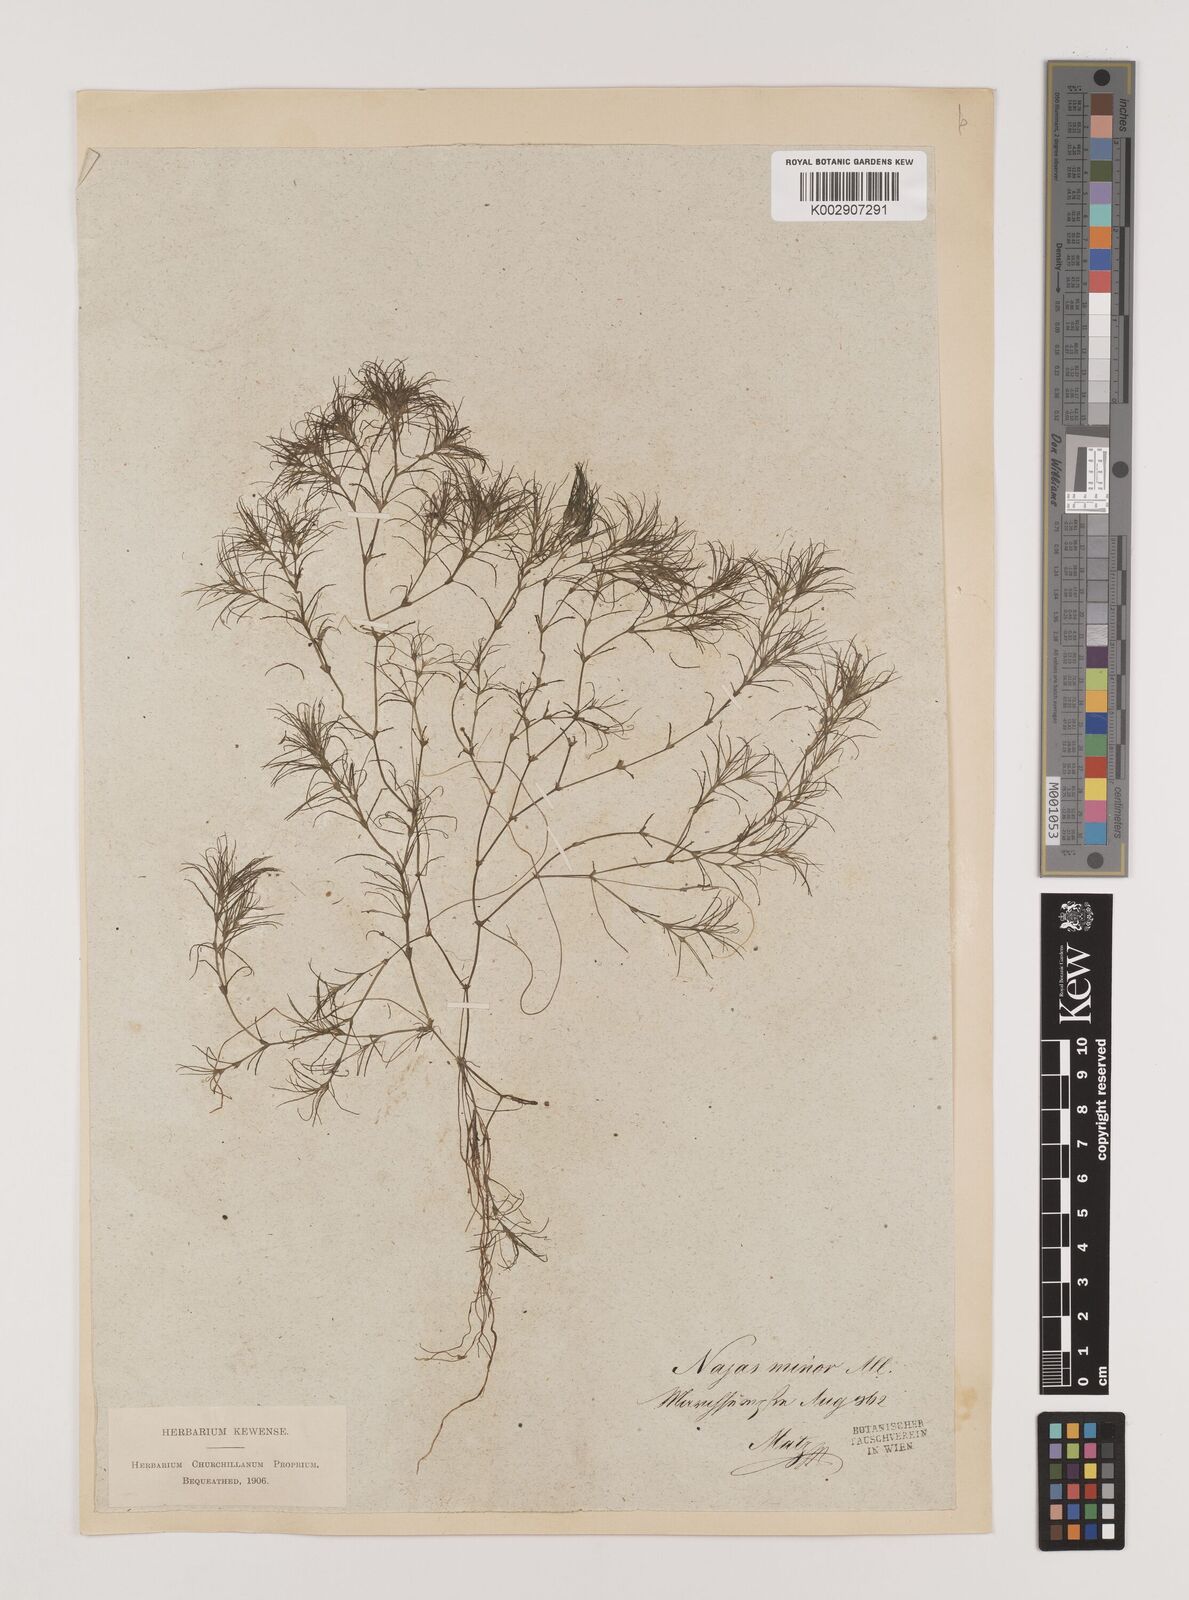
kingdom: Plantae
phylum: Tracheophyta
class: Liliopsida
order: Alismatales
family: Hydrocharitaceae
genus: Najas
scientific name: Najas minor
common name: Brittle naiad
